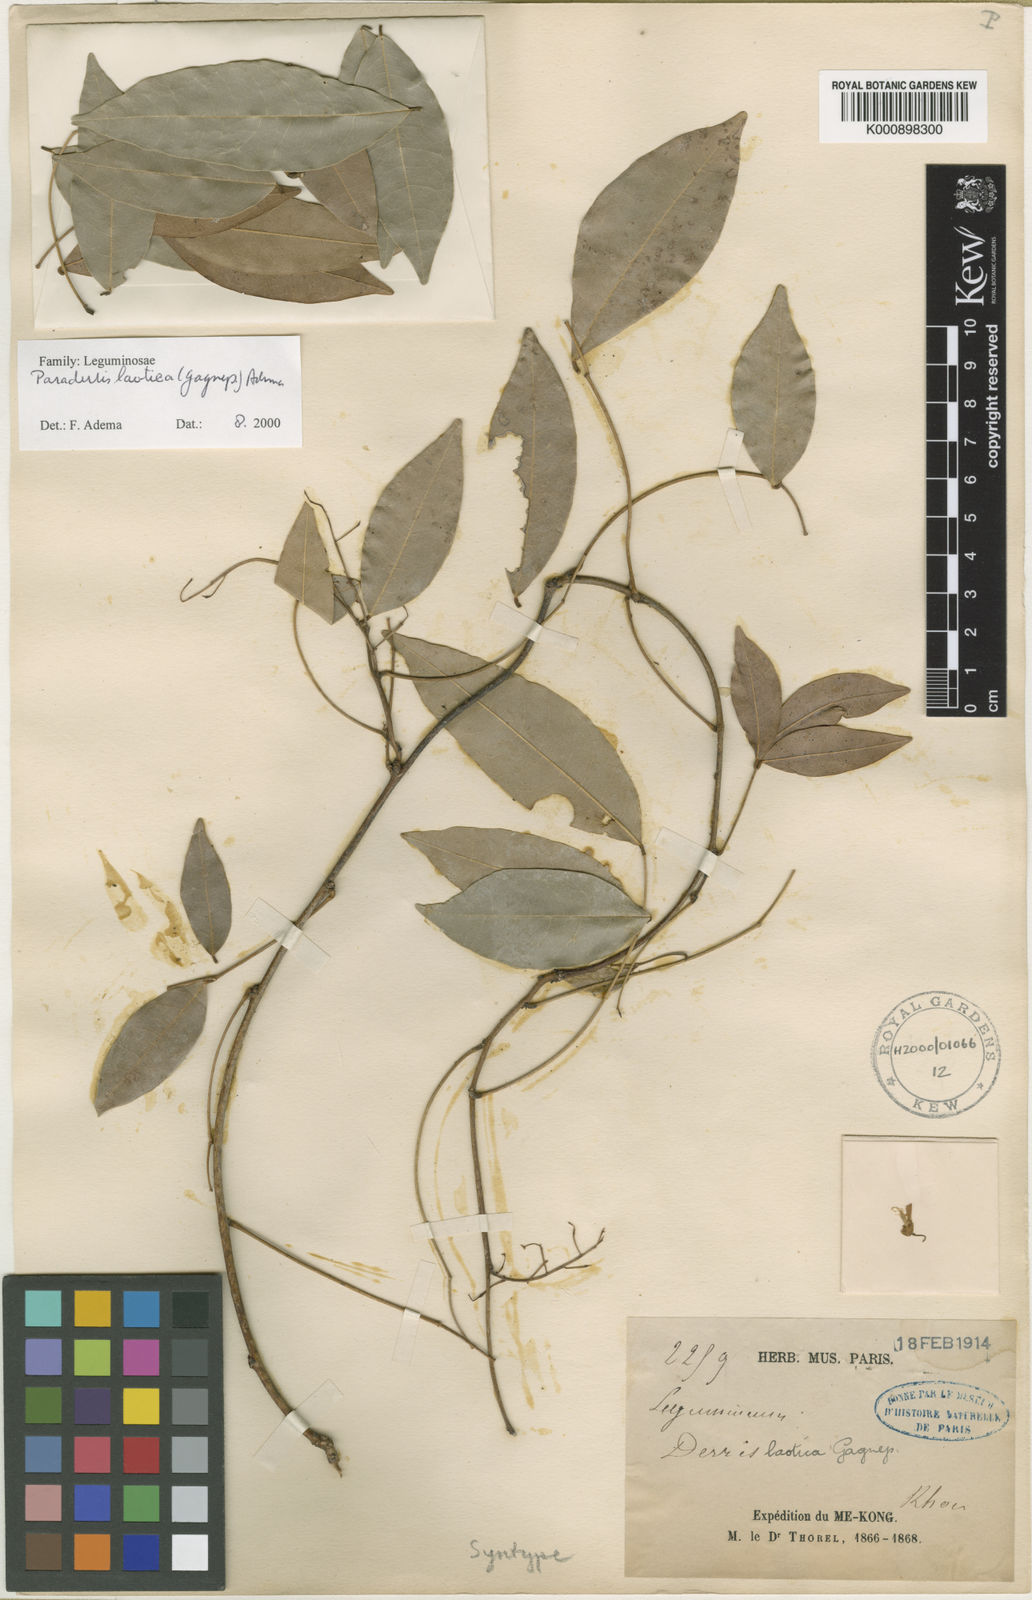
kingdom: Plantae
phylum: Tracheophyta
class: Magnoliopsida
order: Fabales
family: Fabaceae
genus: Derris
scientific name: Derris laotica
